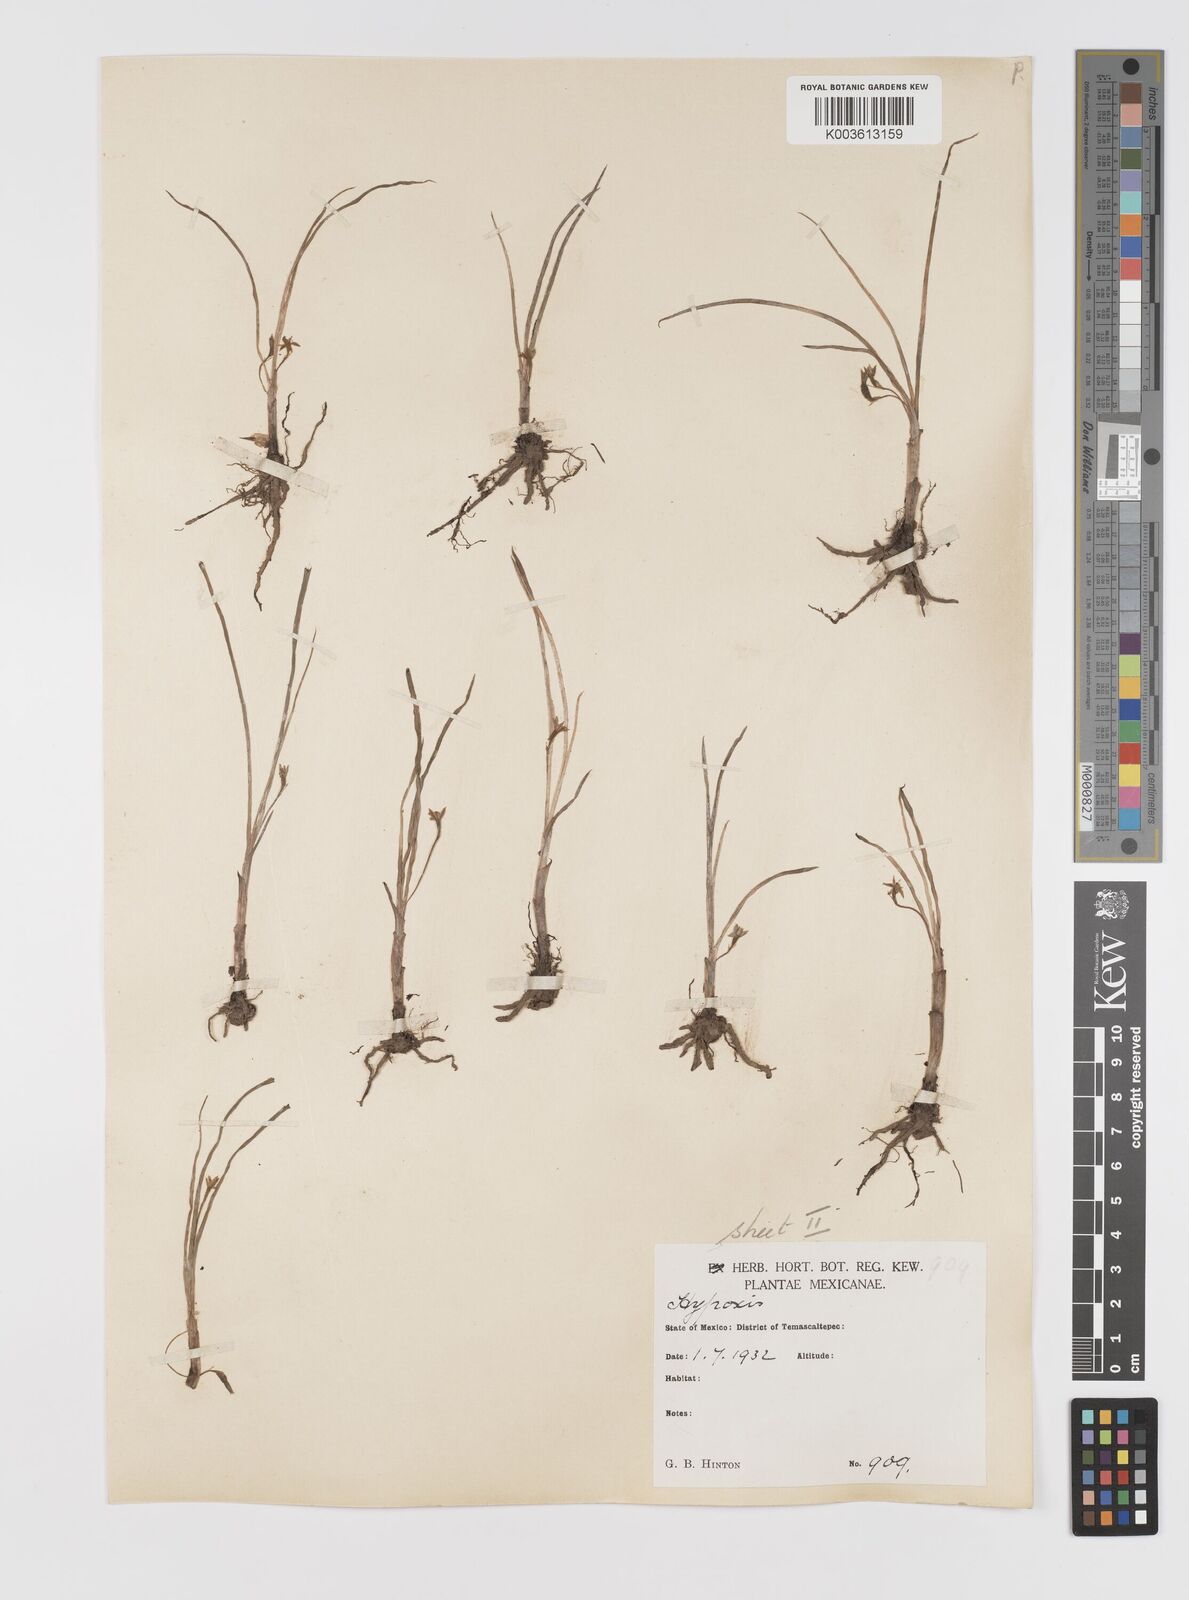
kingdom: Plantae
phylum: Tracheophyta
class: Liliopsida
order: Asparagales
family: Hypoxidaceae
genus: Hypoxis
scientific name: Hypoxis decumbens
